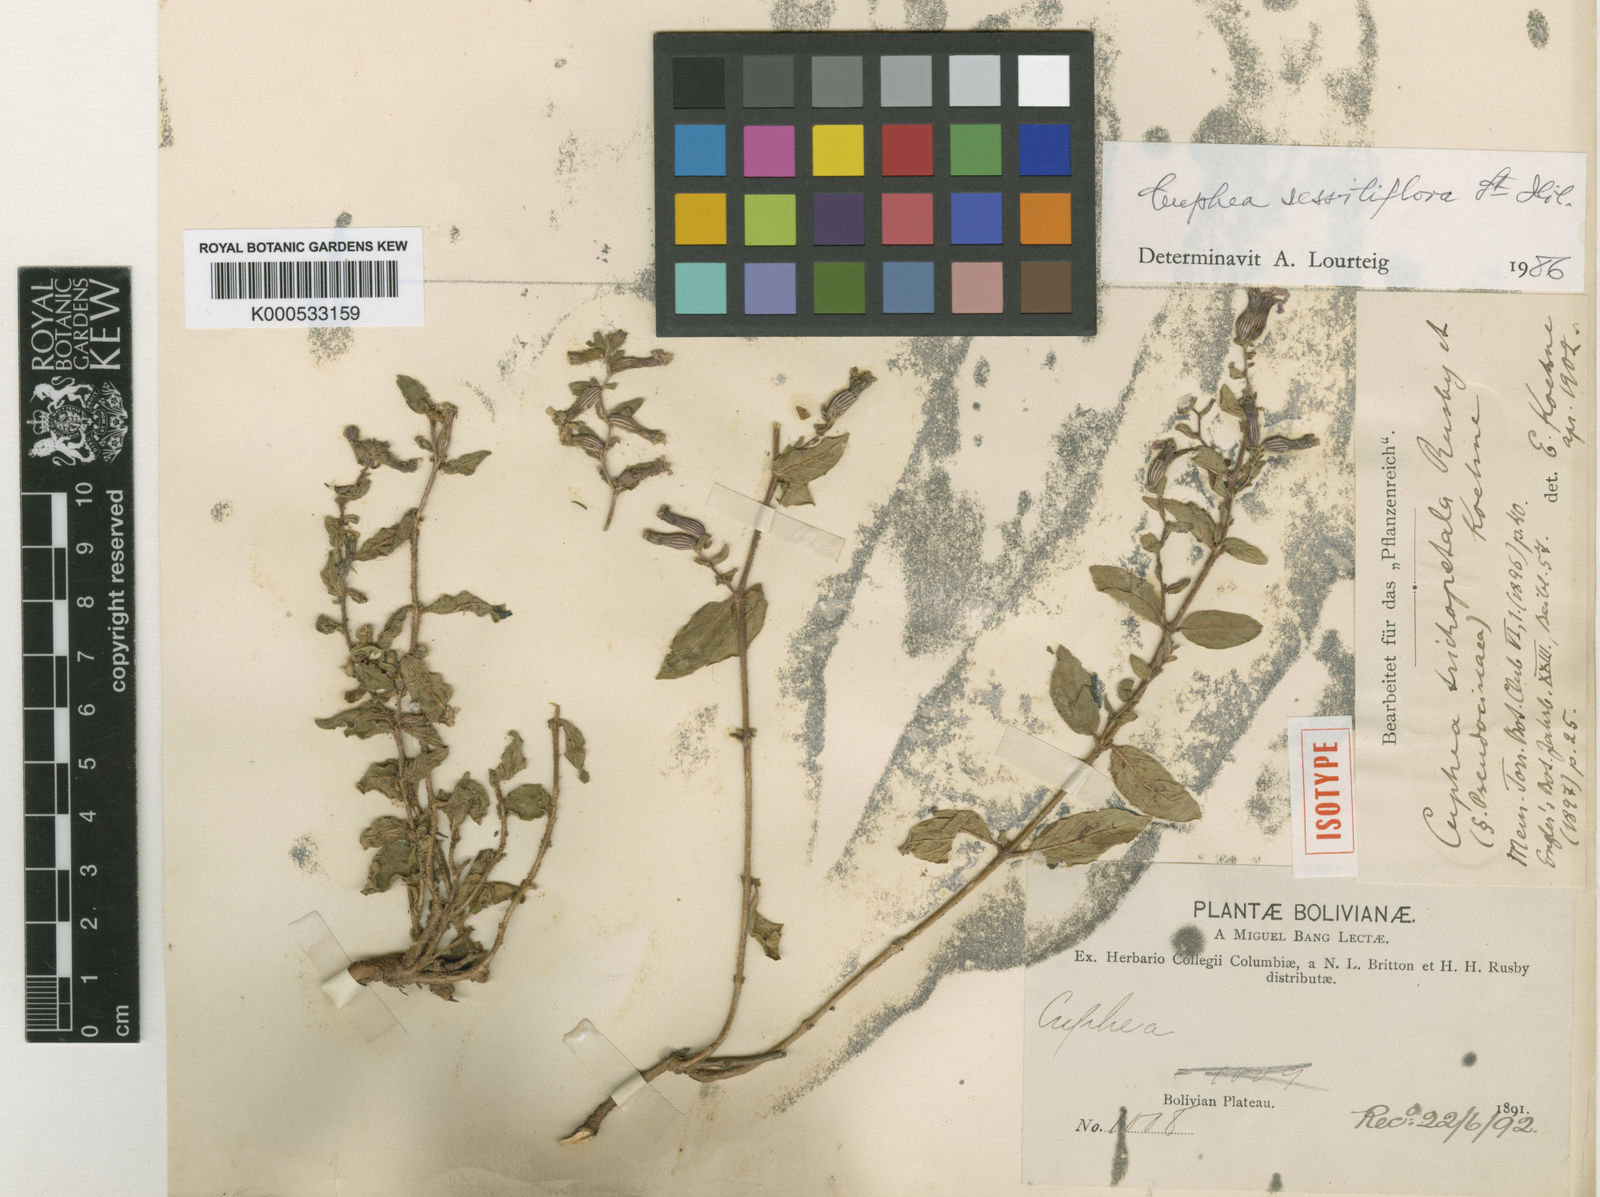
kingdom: Plantae
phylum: Tracheophyta
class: Magnoliopsida
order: Myrtales
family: Lythraceae
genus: Cuphea
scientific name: Cuphea sessiliflora
